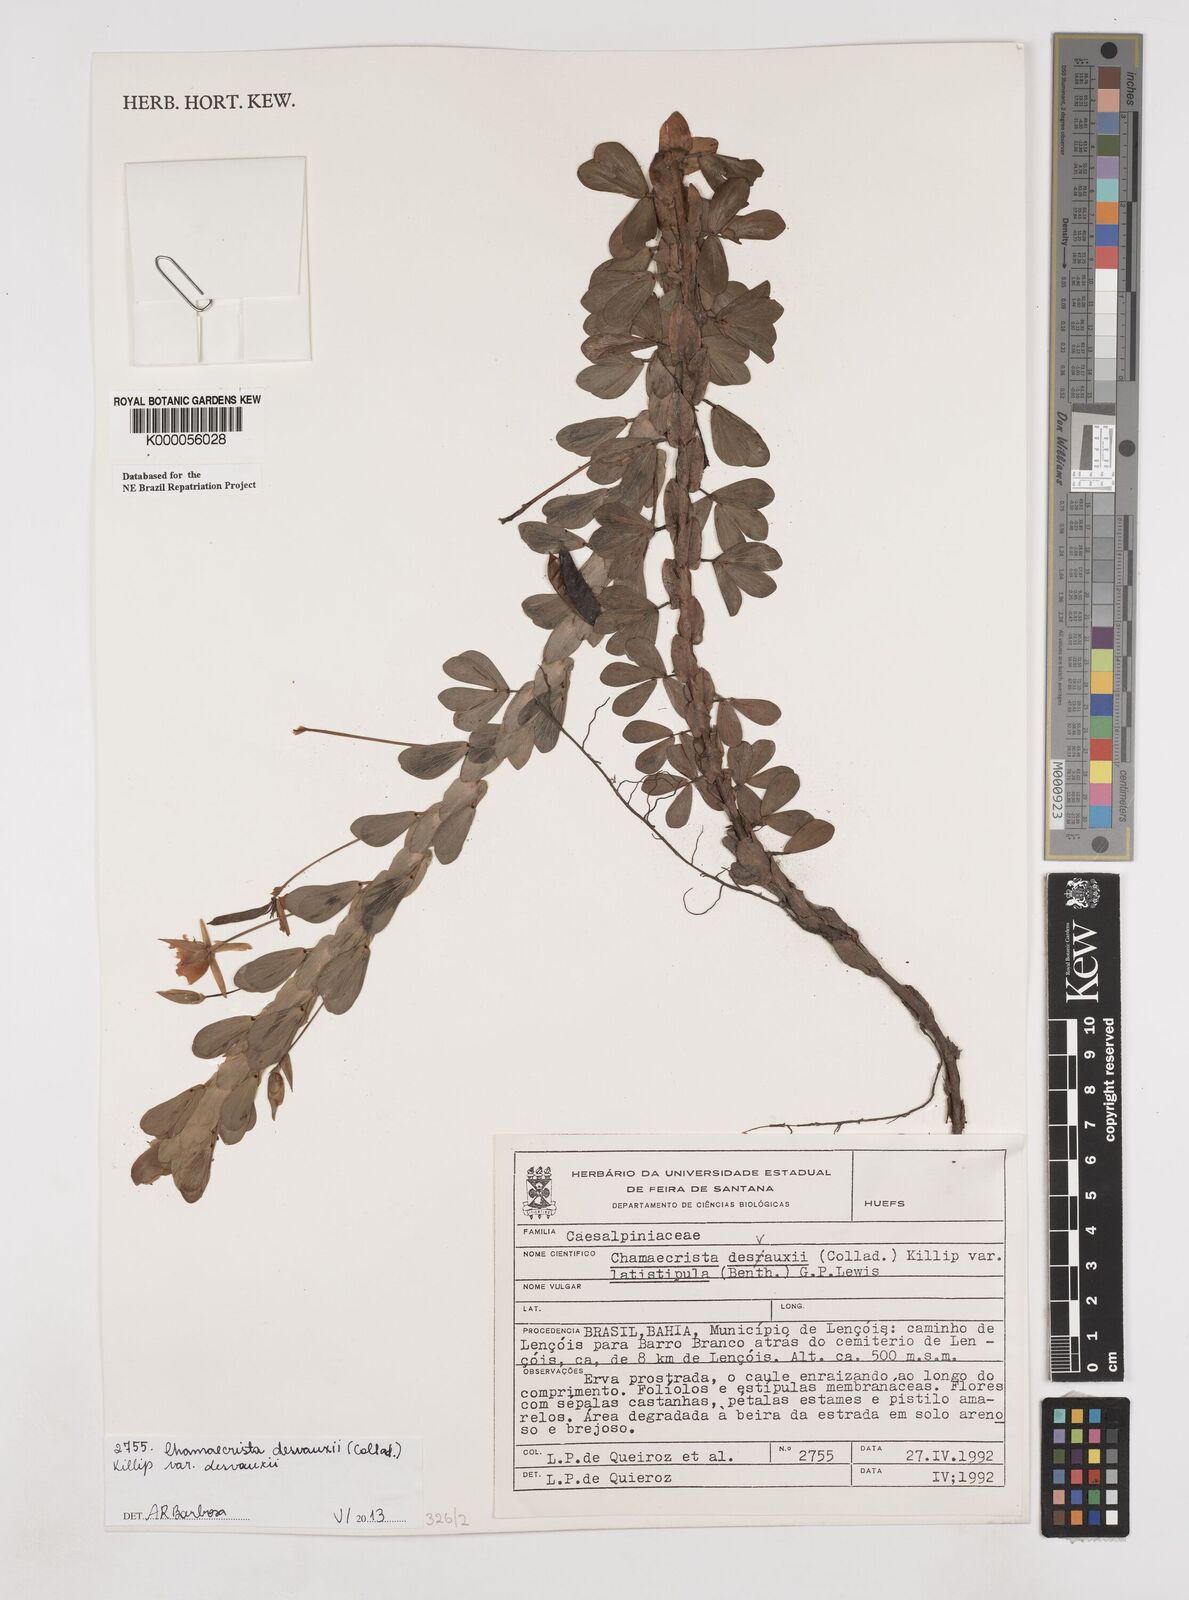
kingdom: Plantae
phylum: Tracheophyta
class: Magnoliopsida
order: Fabales
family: Fabaceae
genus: Chamaecrista
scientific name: Chamaecrista desvauxii
